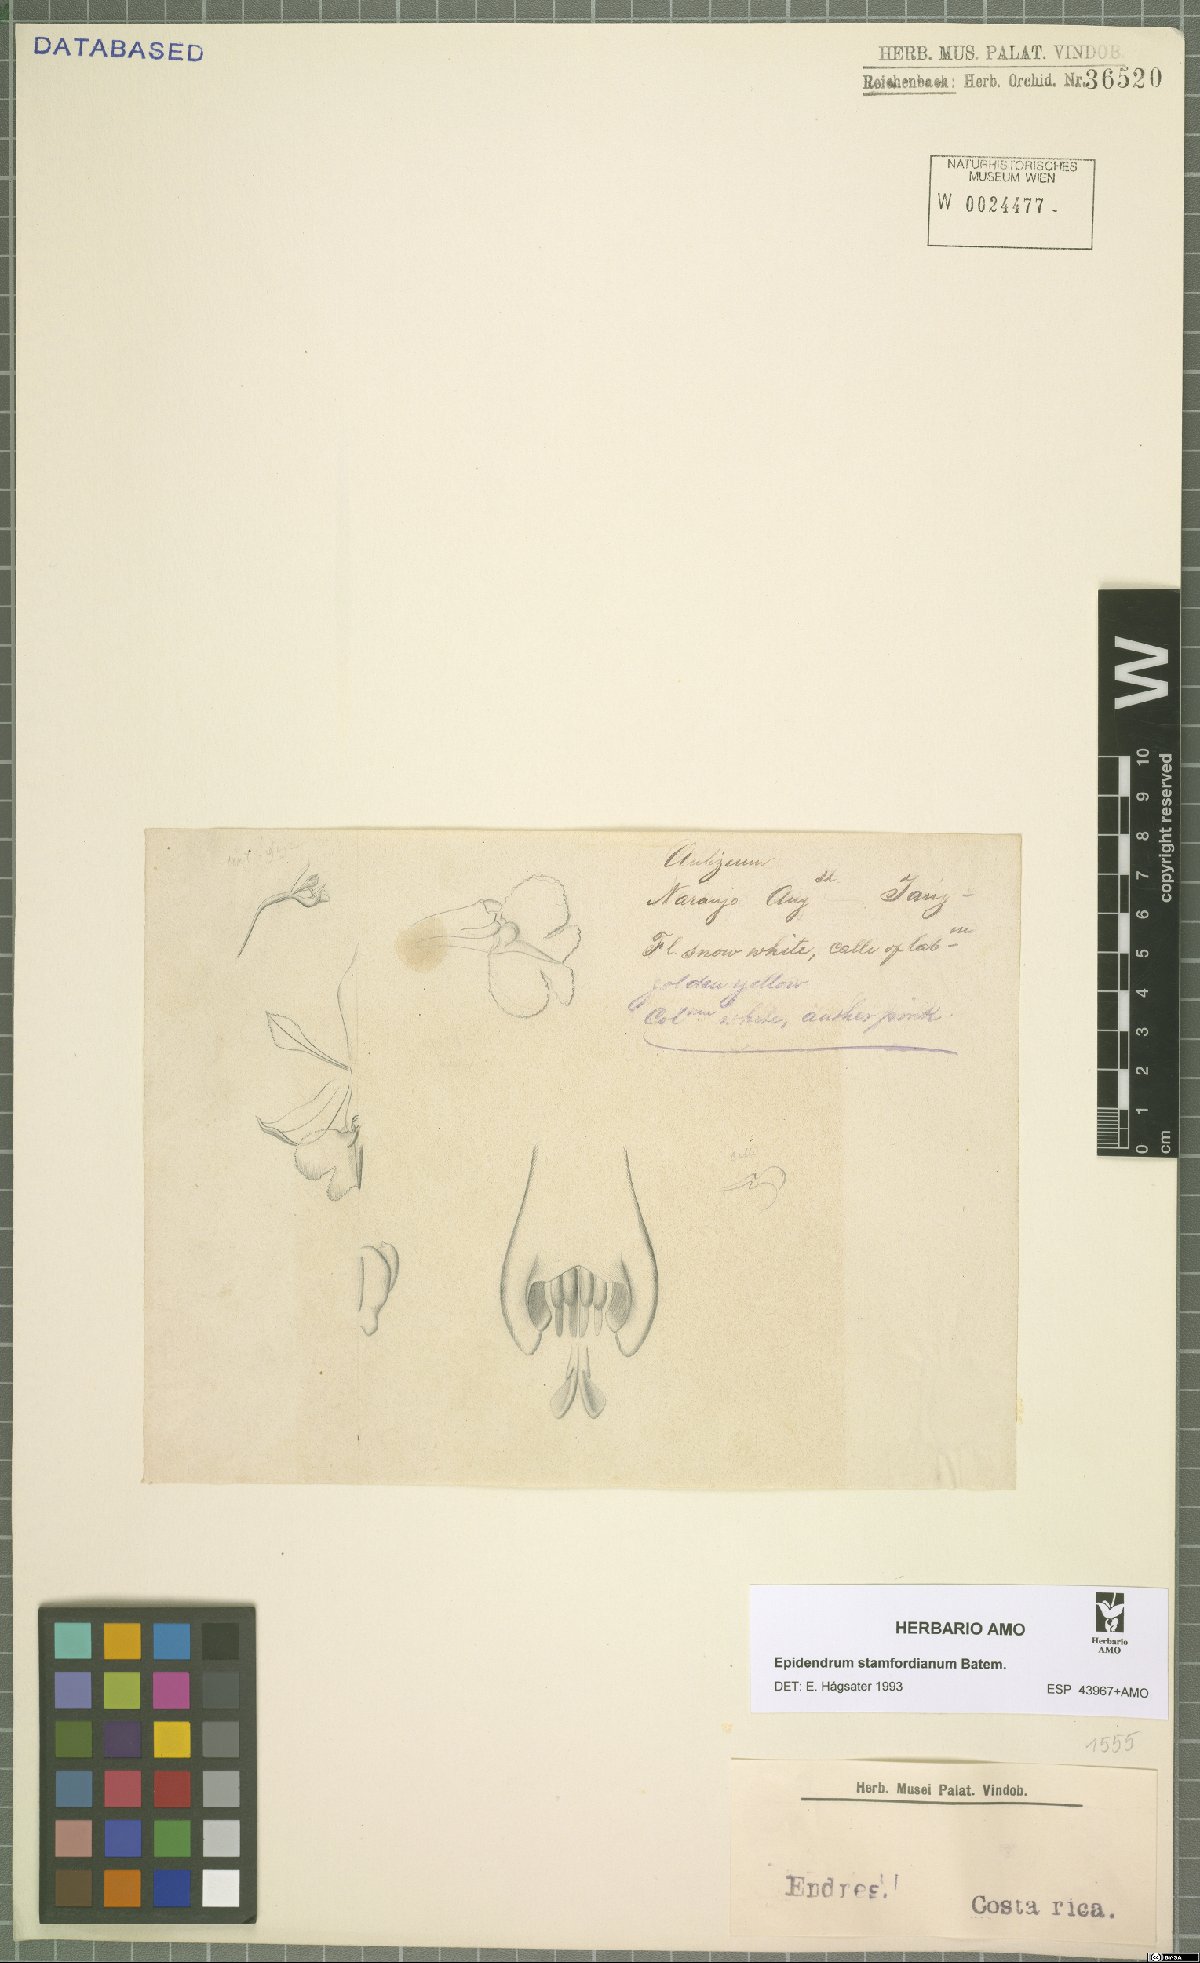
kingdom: Plantae
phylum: Tracheophyta
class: Liliopsida
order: Asparagales
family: Orchidaceae
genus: Epidendrum
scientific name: Epidendrum stamfordianum
